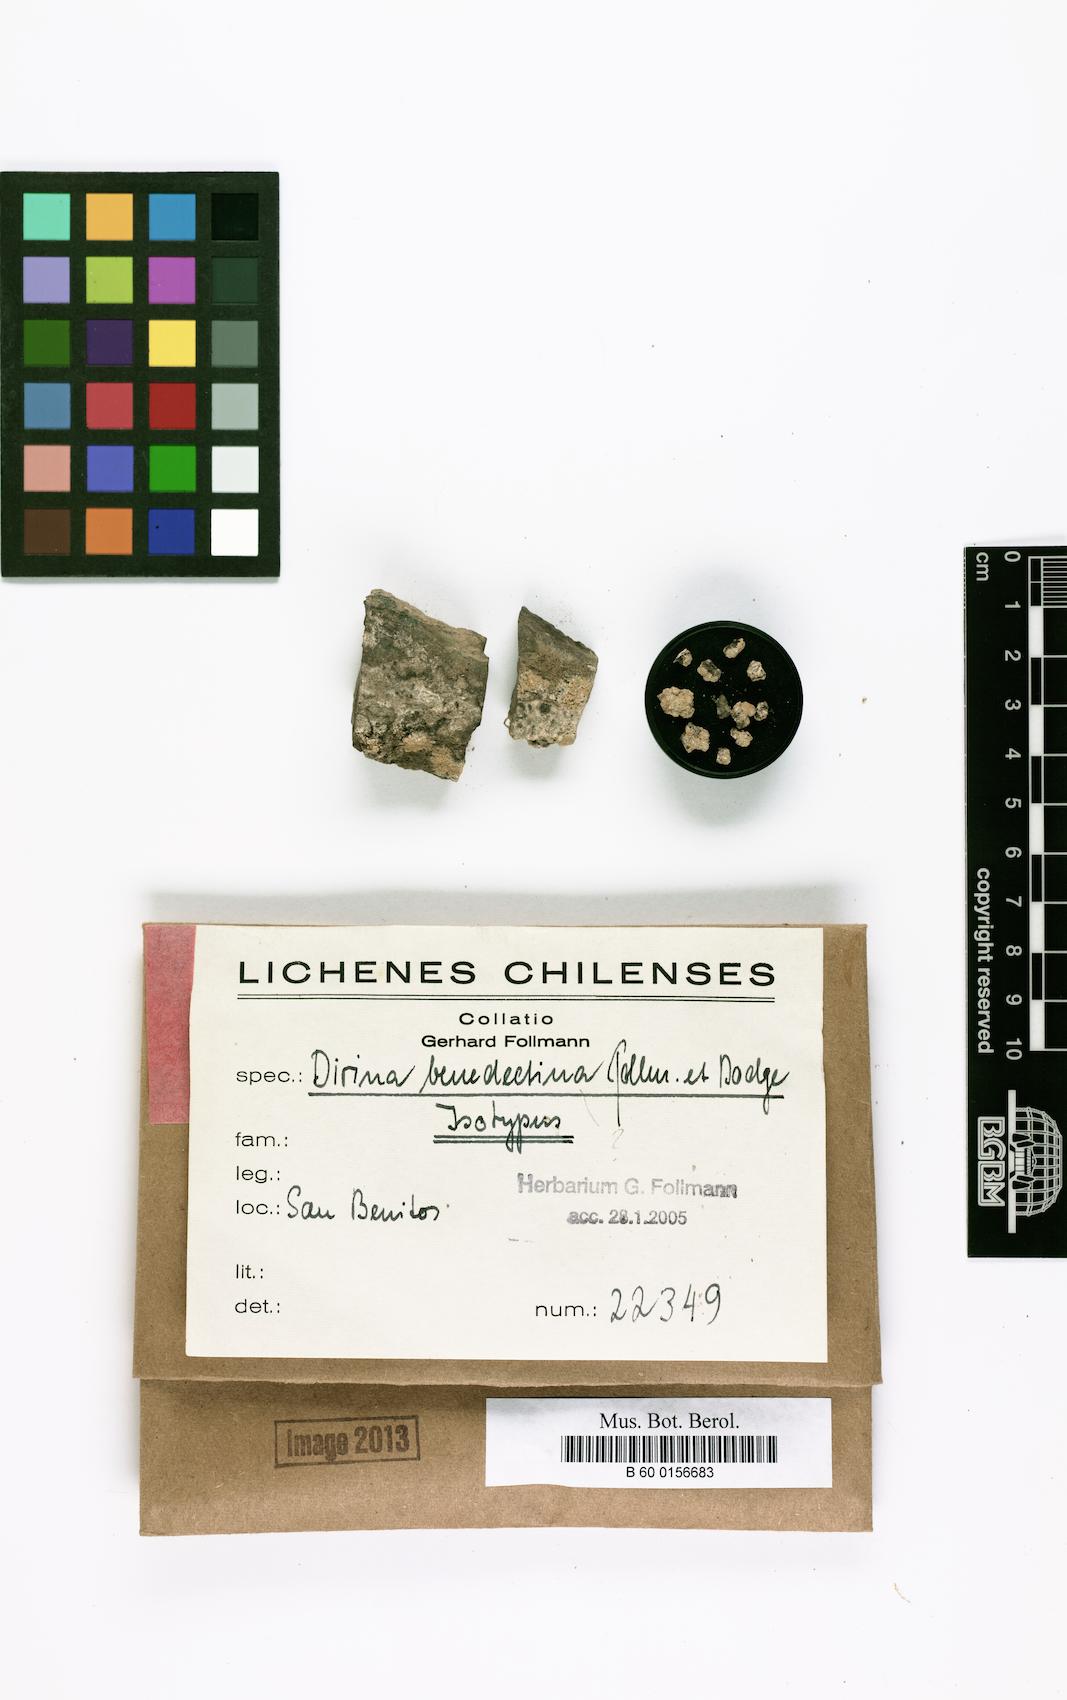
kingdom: Fungi
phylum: Ascomycota
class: Arthoniomycetes
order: Arthoniales
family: Roccellaceae
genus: Dirina
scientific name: Dirina
